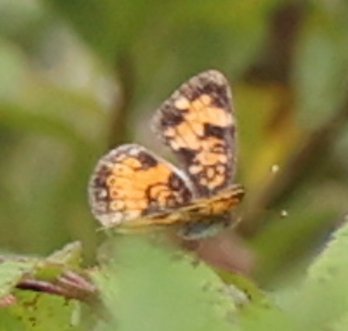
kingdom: Animalia
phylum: Arthropoda
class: Insecta
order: Lepidoptera
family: Nymphalidae
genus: Phyciodes
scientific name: Phyciodes
